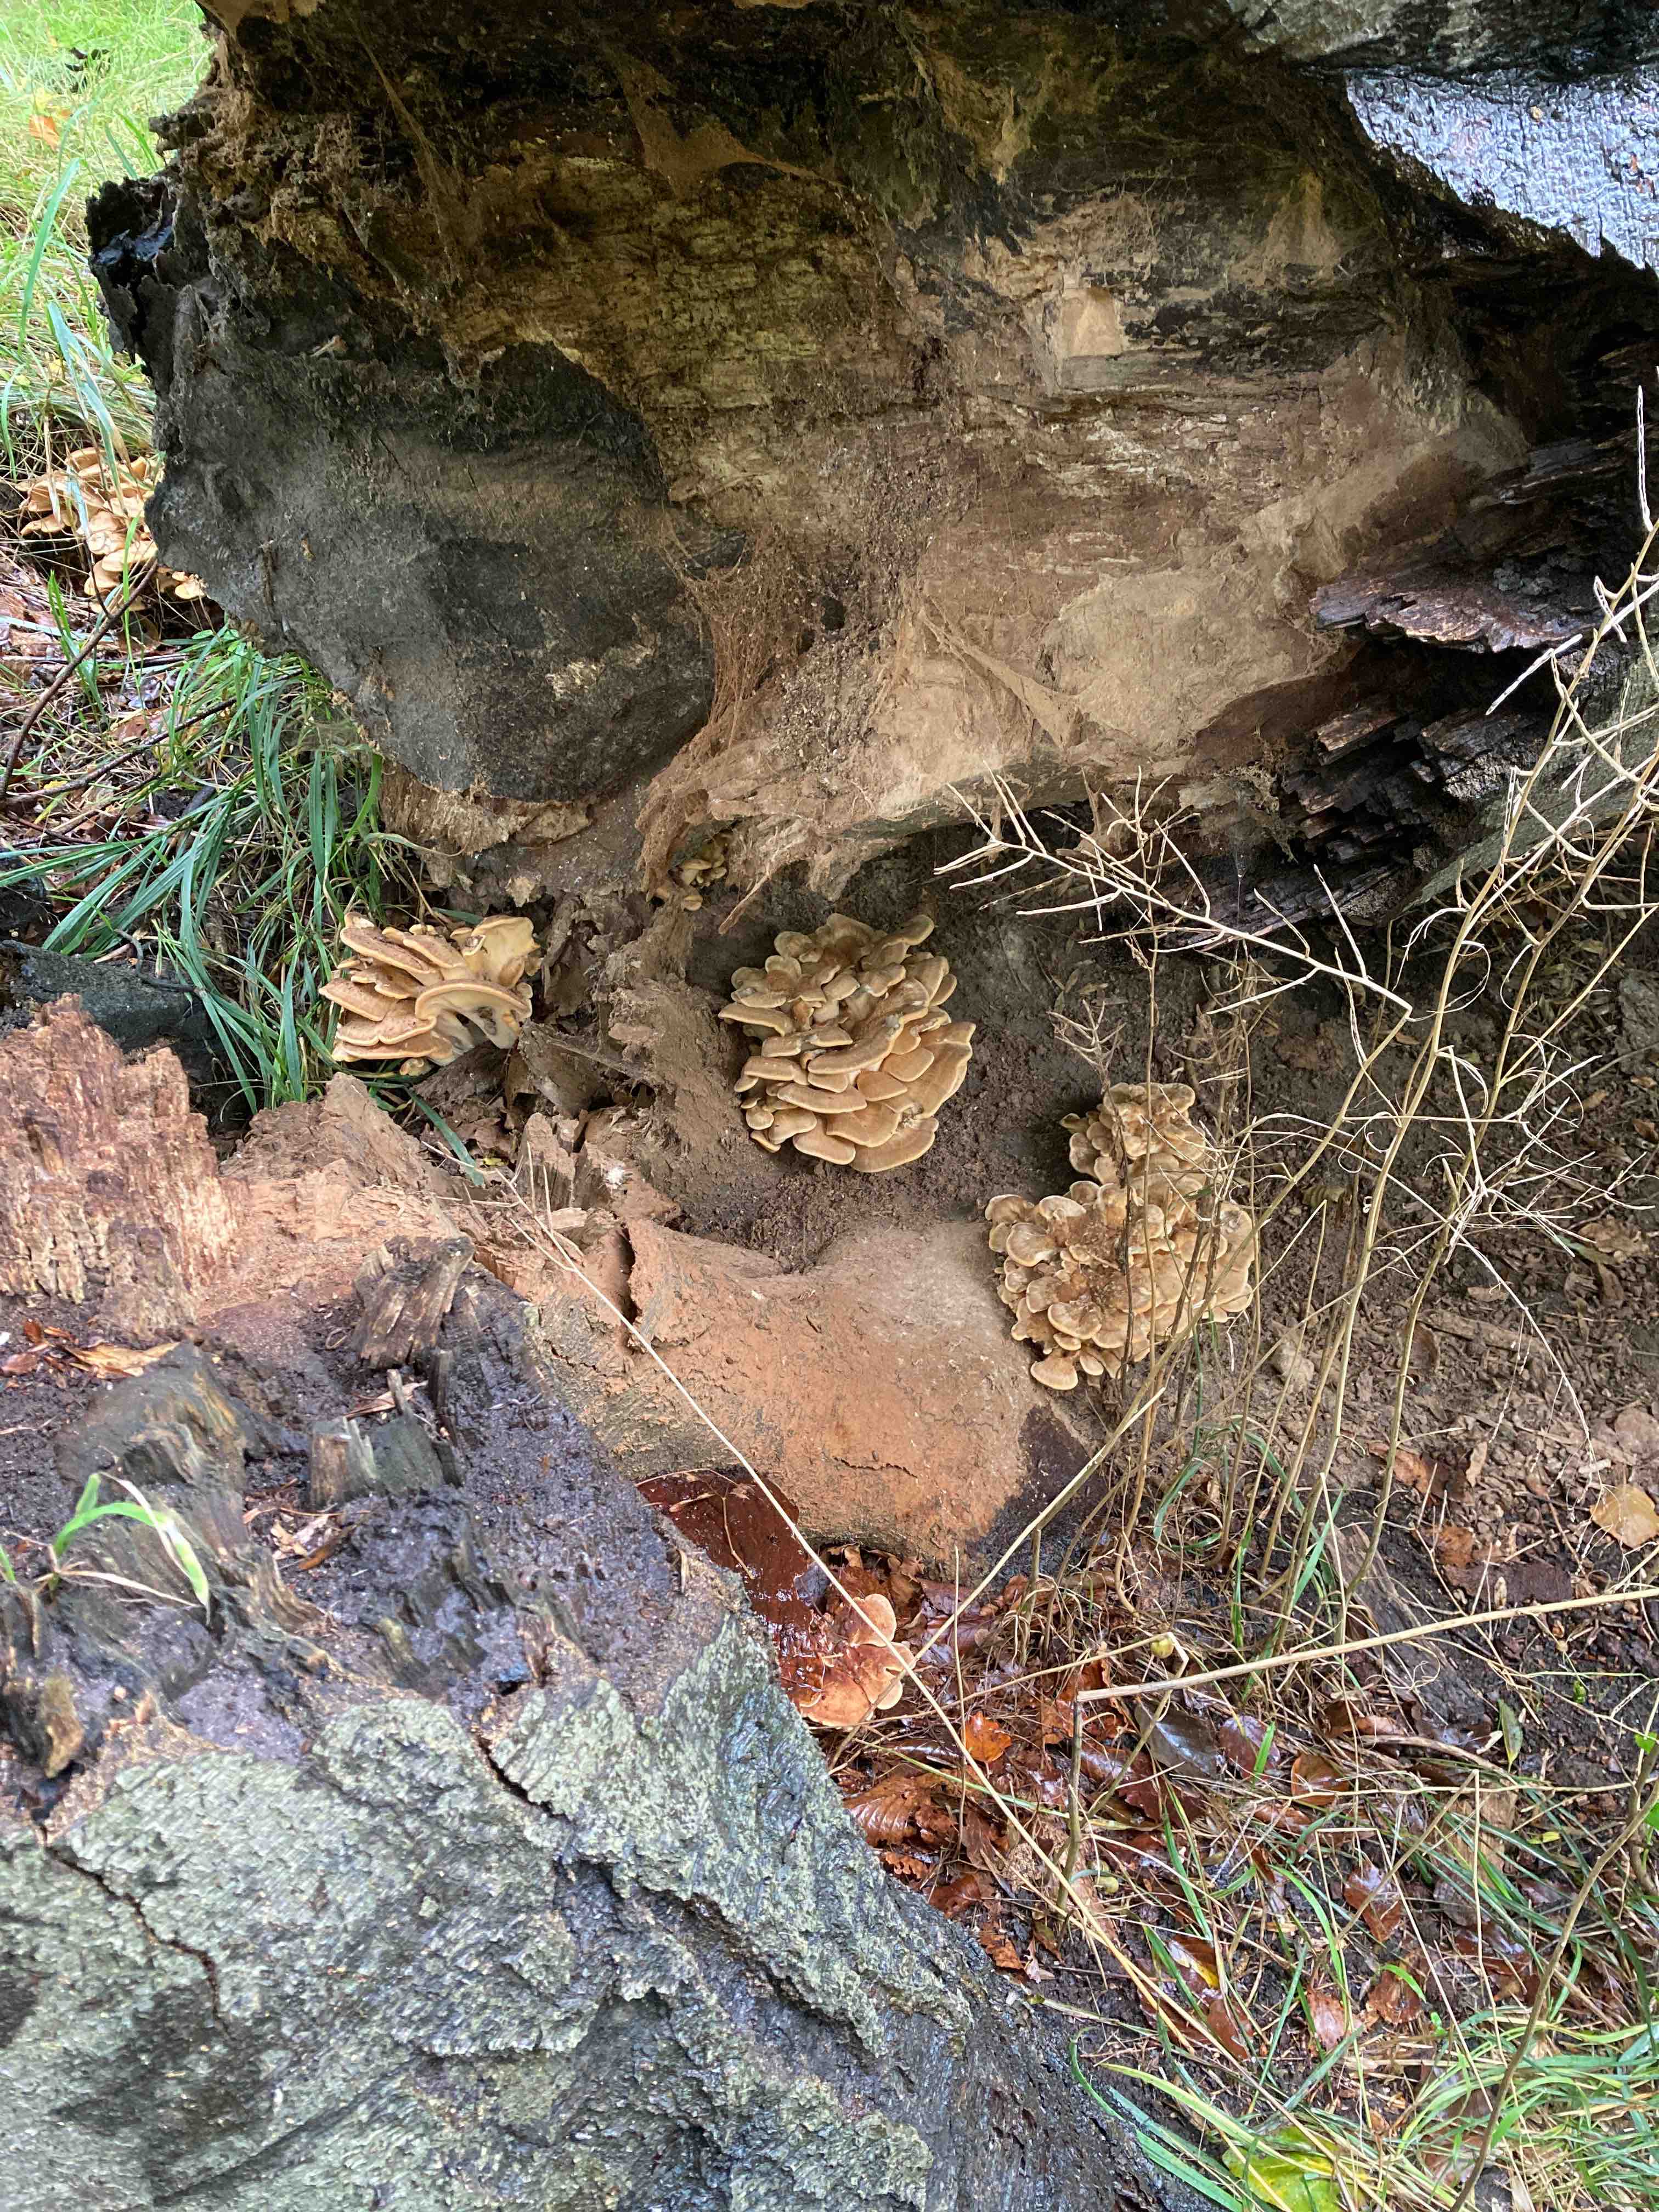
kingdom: Fungi
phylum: Basidiomycota
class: Agaricomycetes
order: Polyporales
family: Meripilaceae
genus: Meripilus
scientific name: Meripilus giganteus
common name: kæmpeporesvamp
